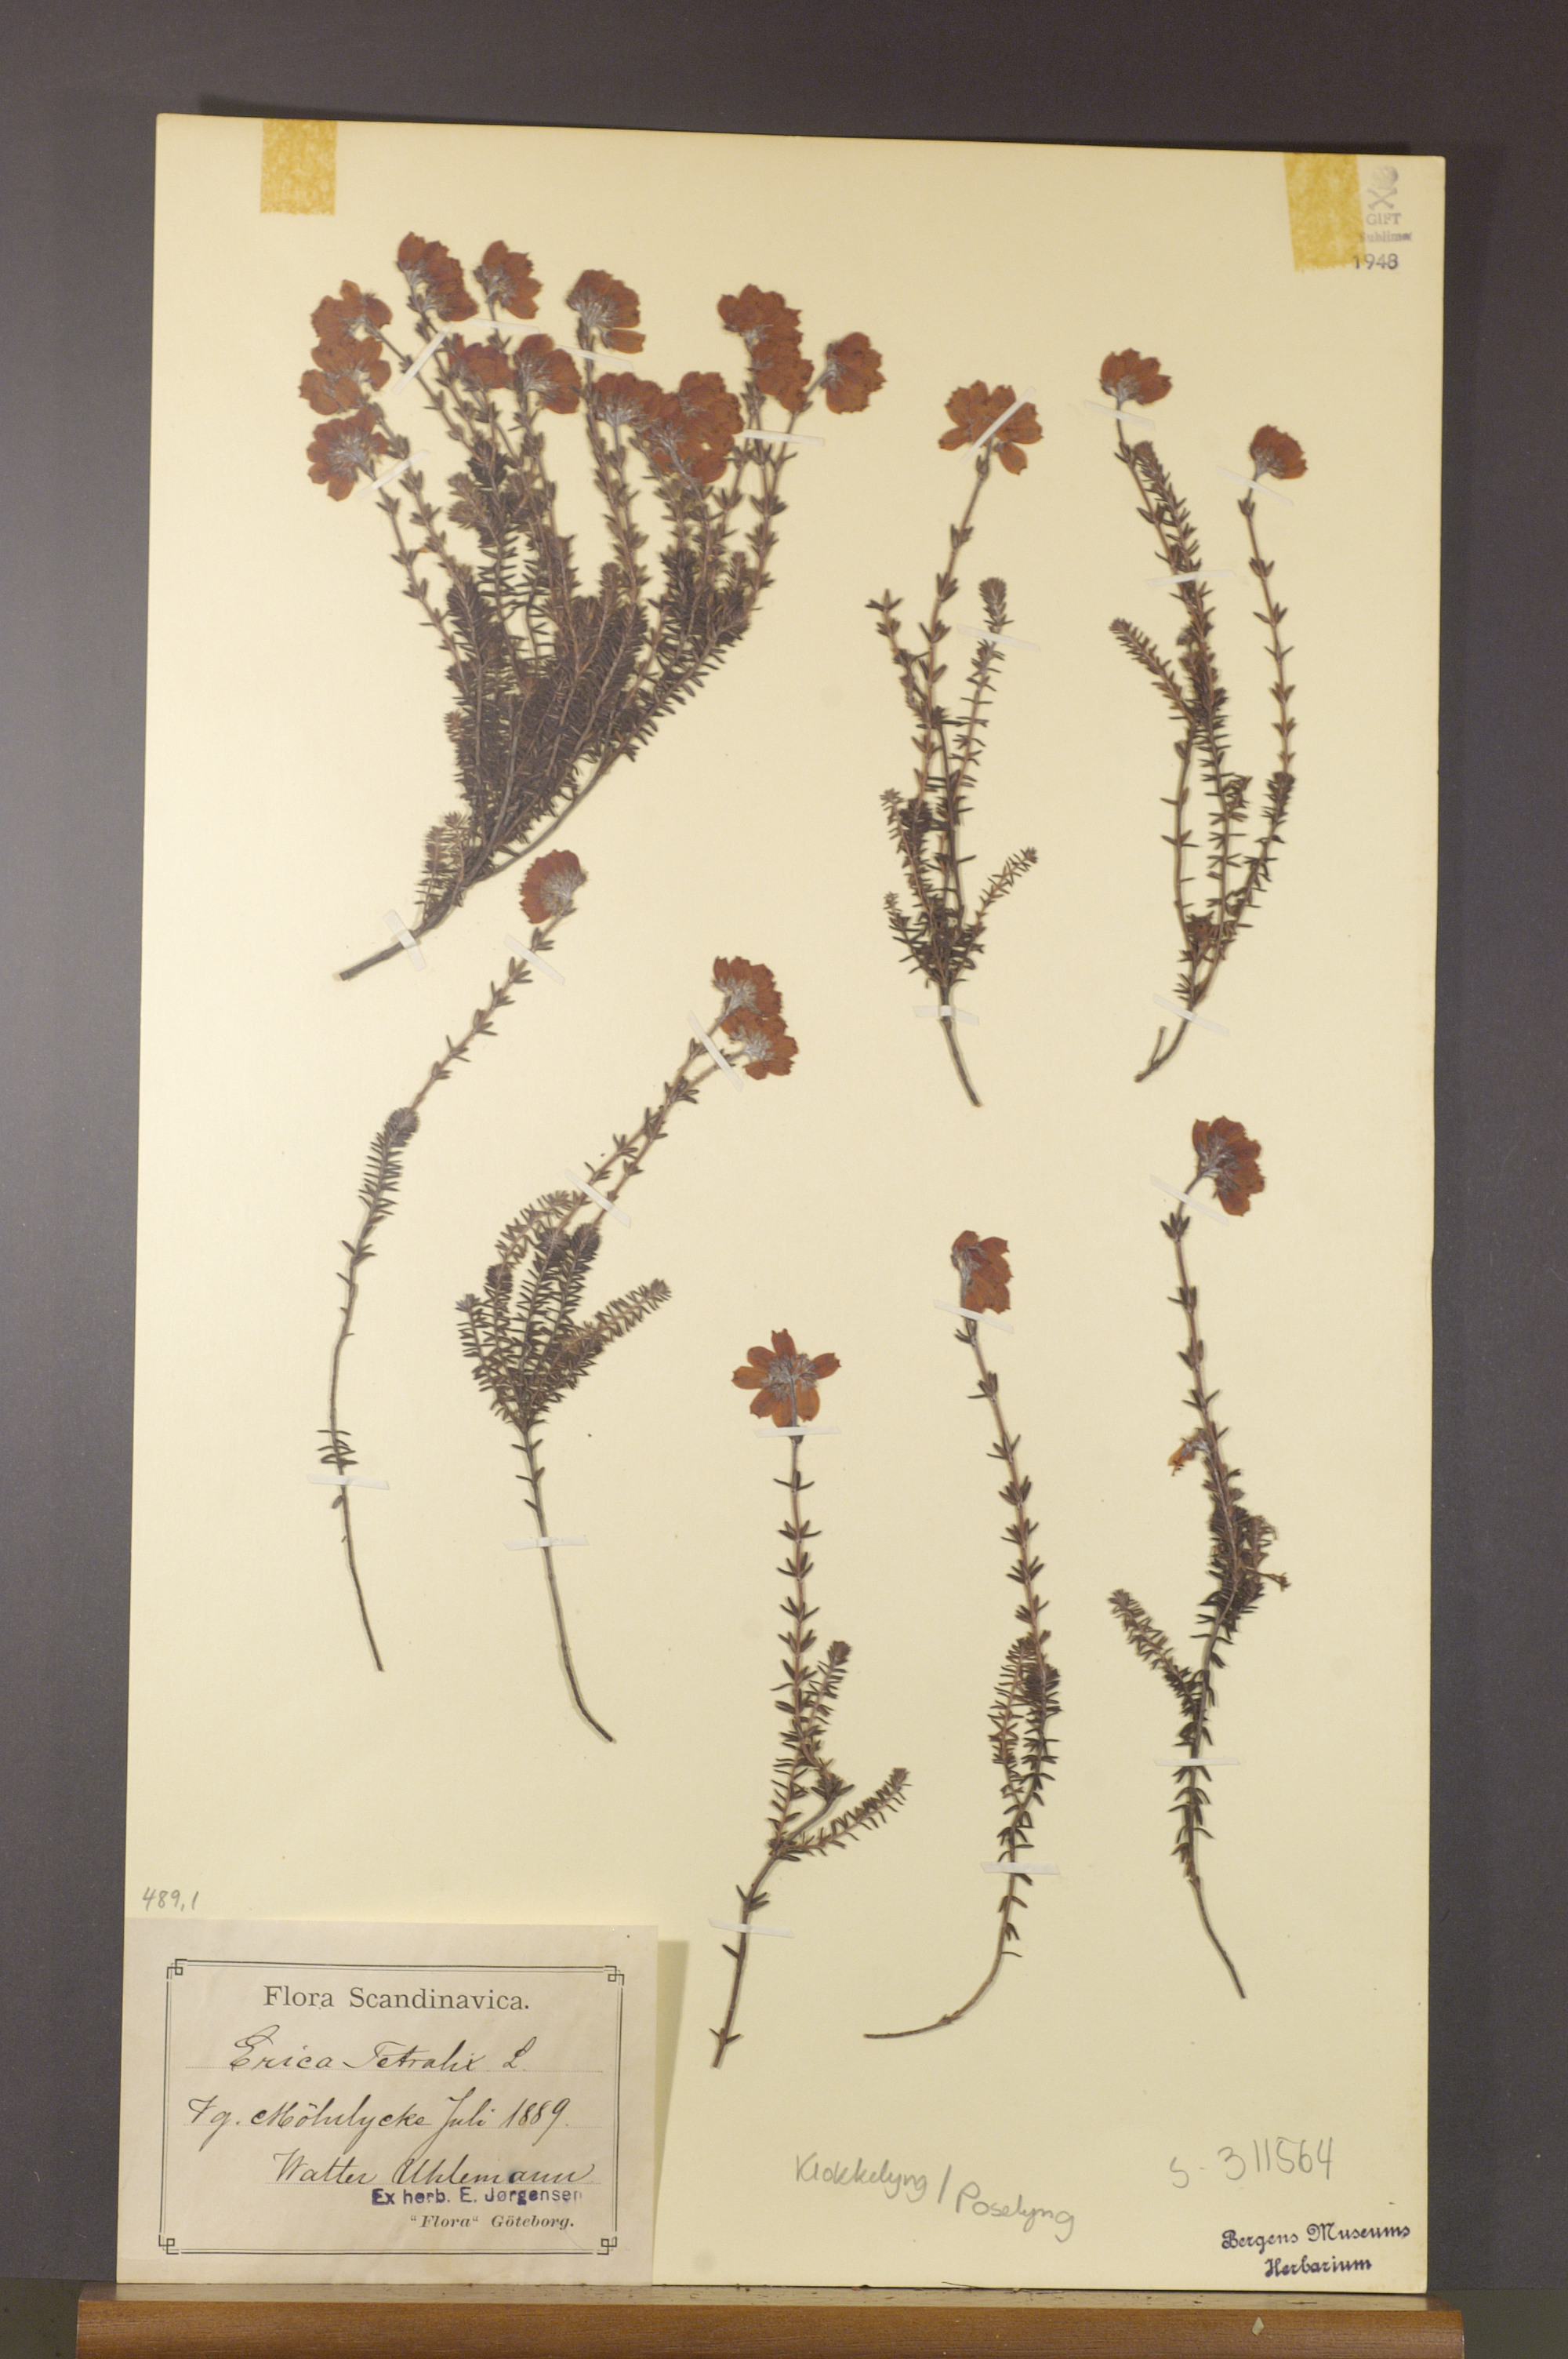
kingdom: Plantae
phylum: Tracheophyta
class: Magnoliopsida
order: Ericales
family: Ericaceae
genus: Erica
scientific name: Erica tetralix
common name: Cross-leaved heath
